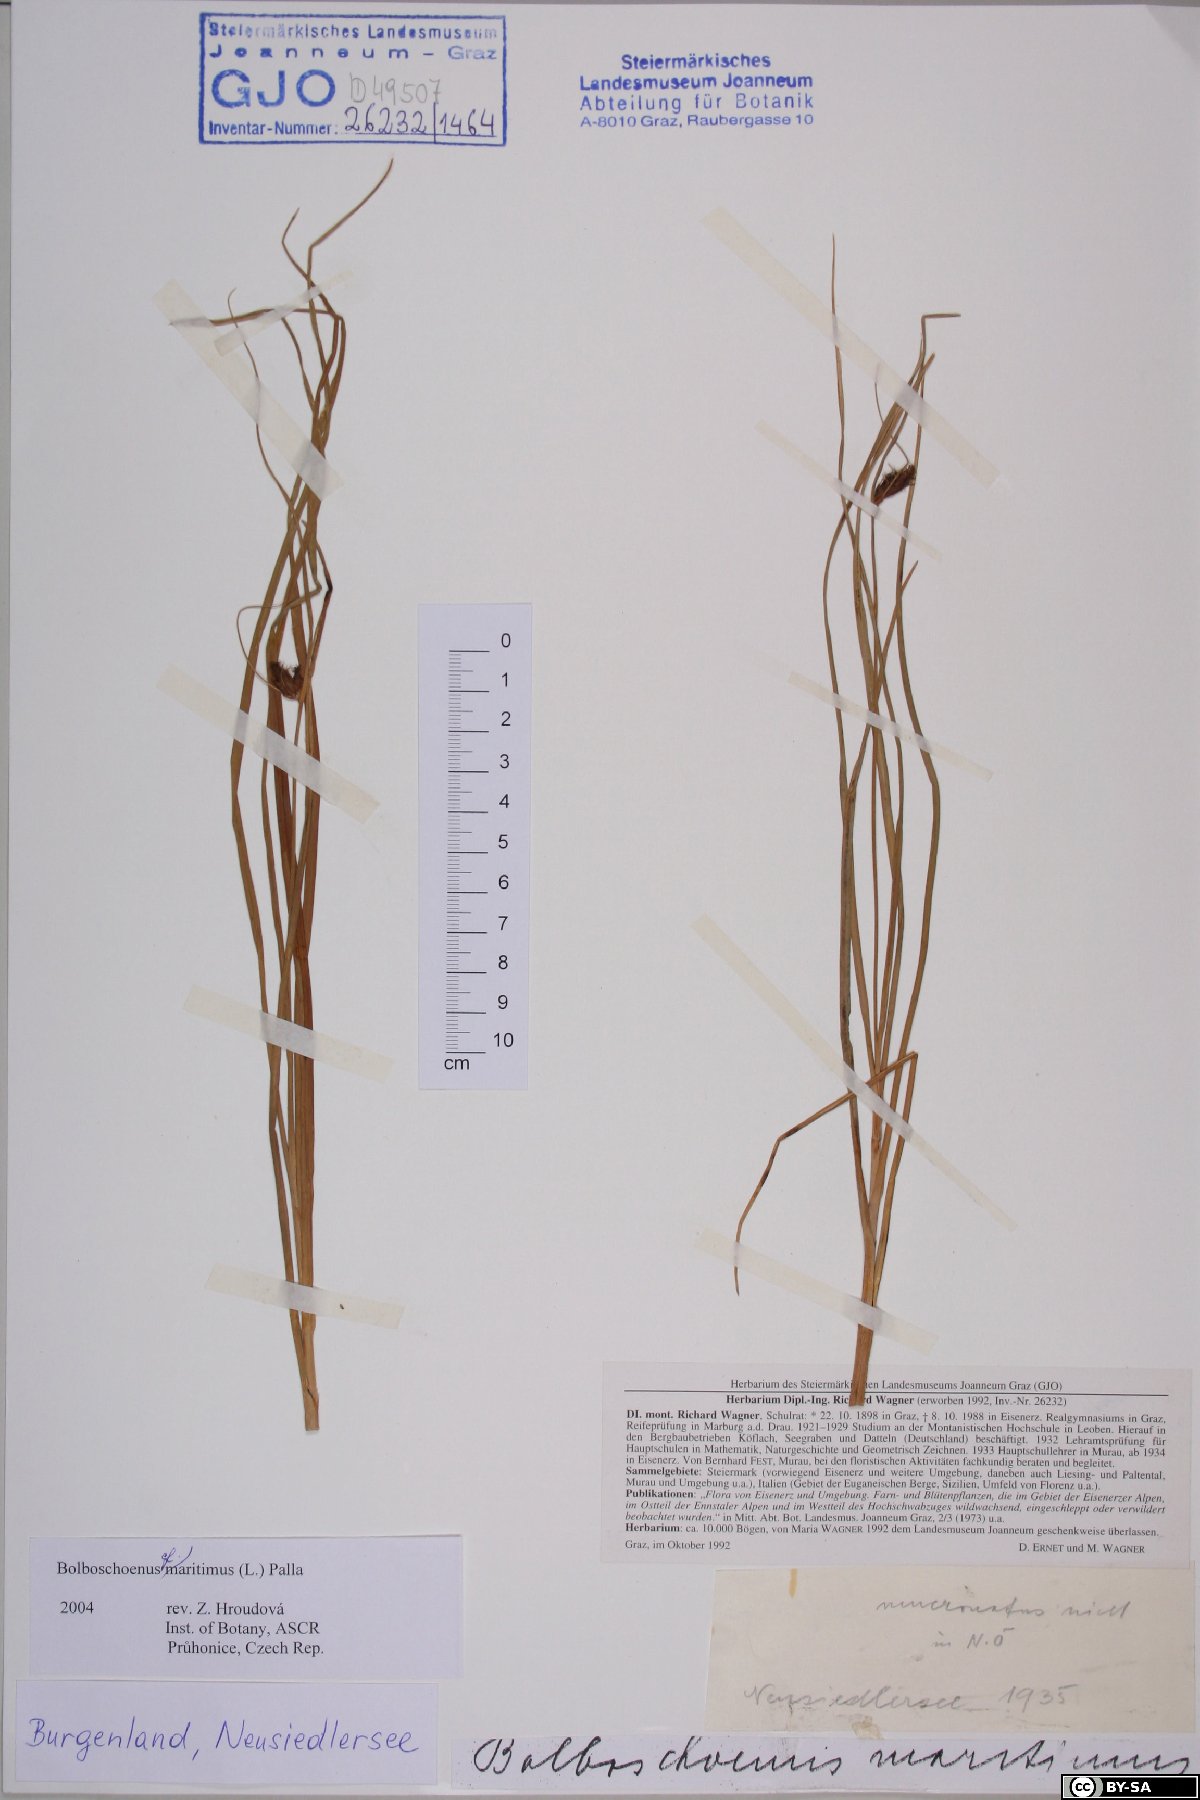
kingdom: Plantae
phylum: Tracheophyta
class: Liliopsida
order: Poales
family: Cyperaceae
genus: Bolboschoenus
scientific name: Bolboschoenus maritimus
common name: Sea club-rush
